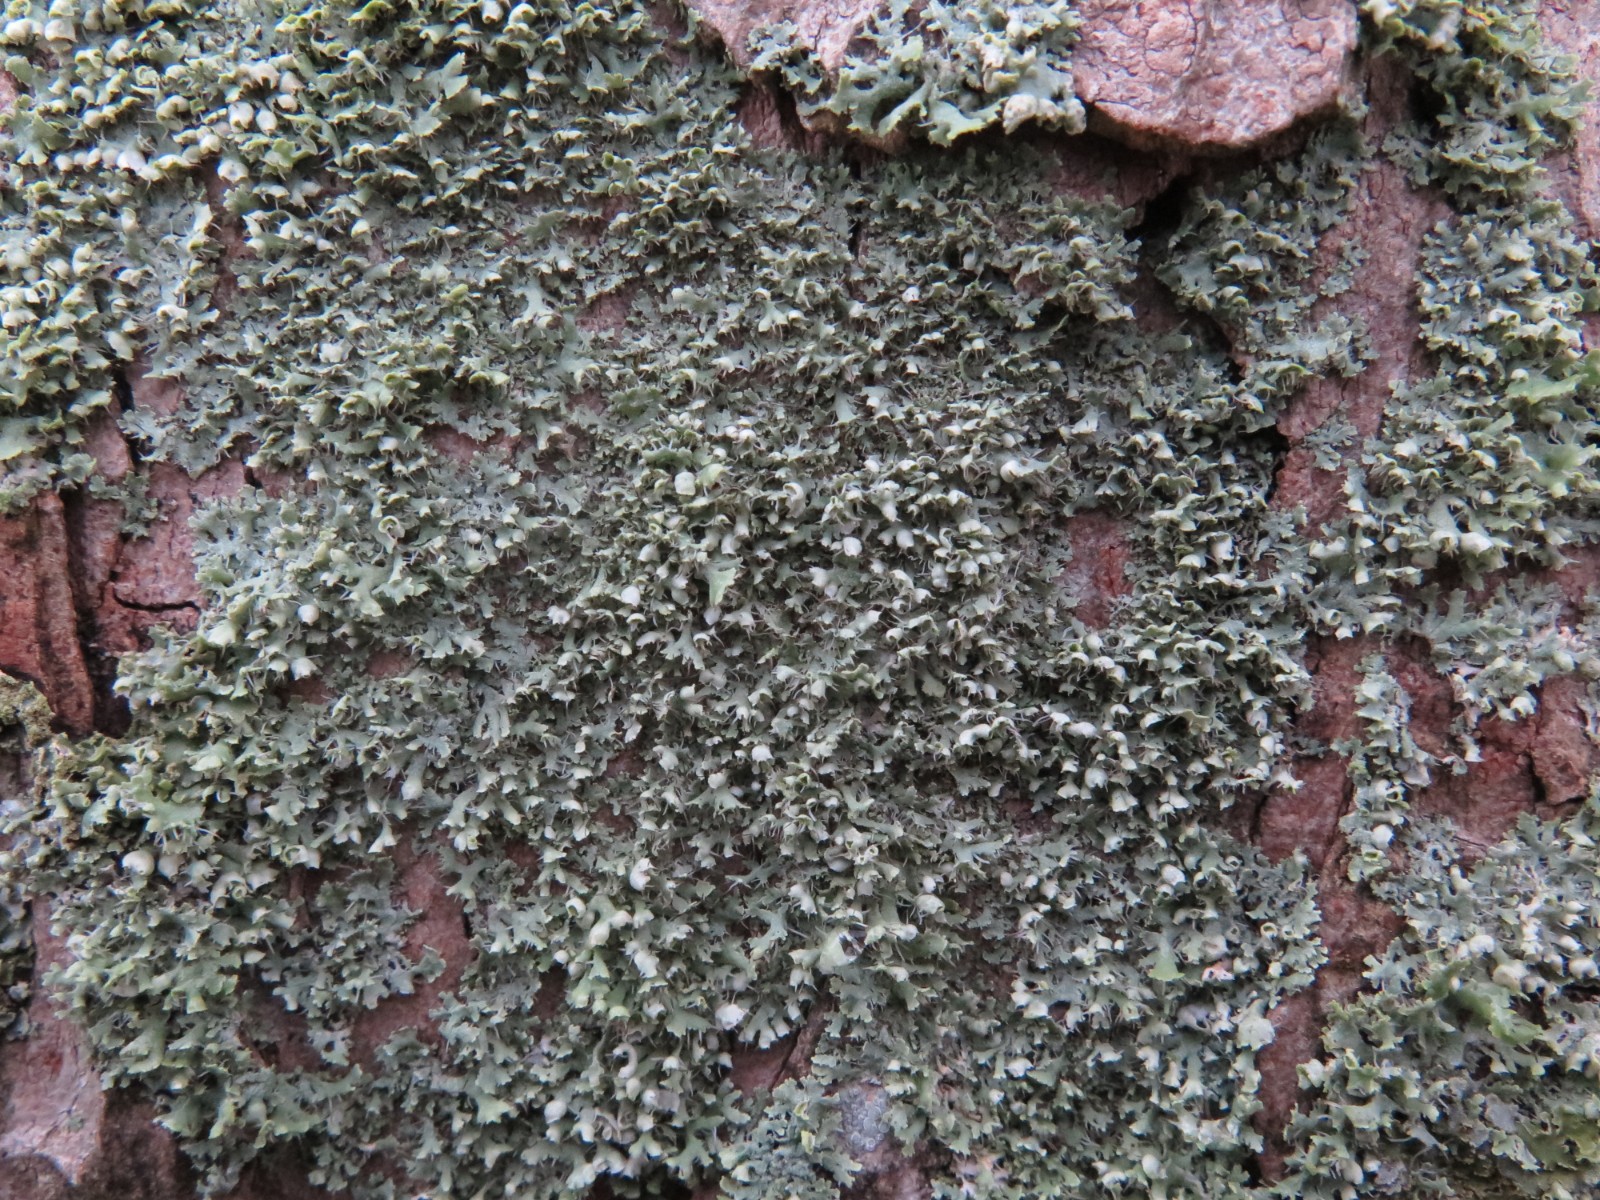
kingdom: Fungi
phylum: Ascomycota
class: Lecanoromycetes
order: Caliciales
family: Physciaceae
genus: Physcia
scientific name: Physcia adscendens
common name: hætte-rosetlav
